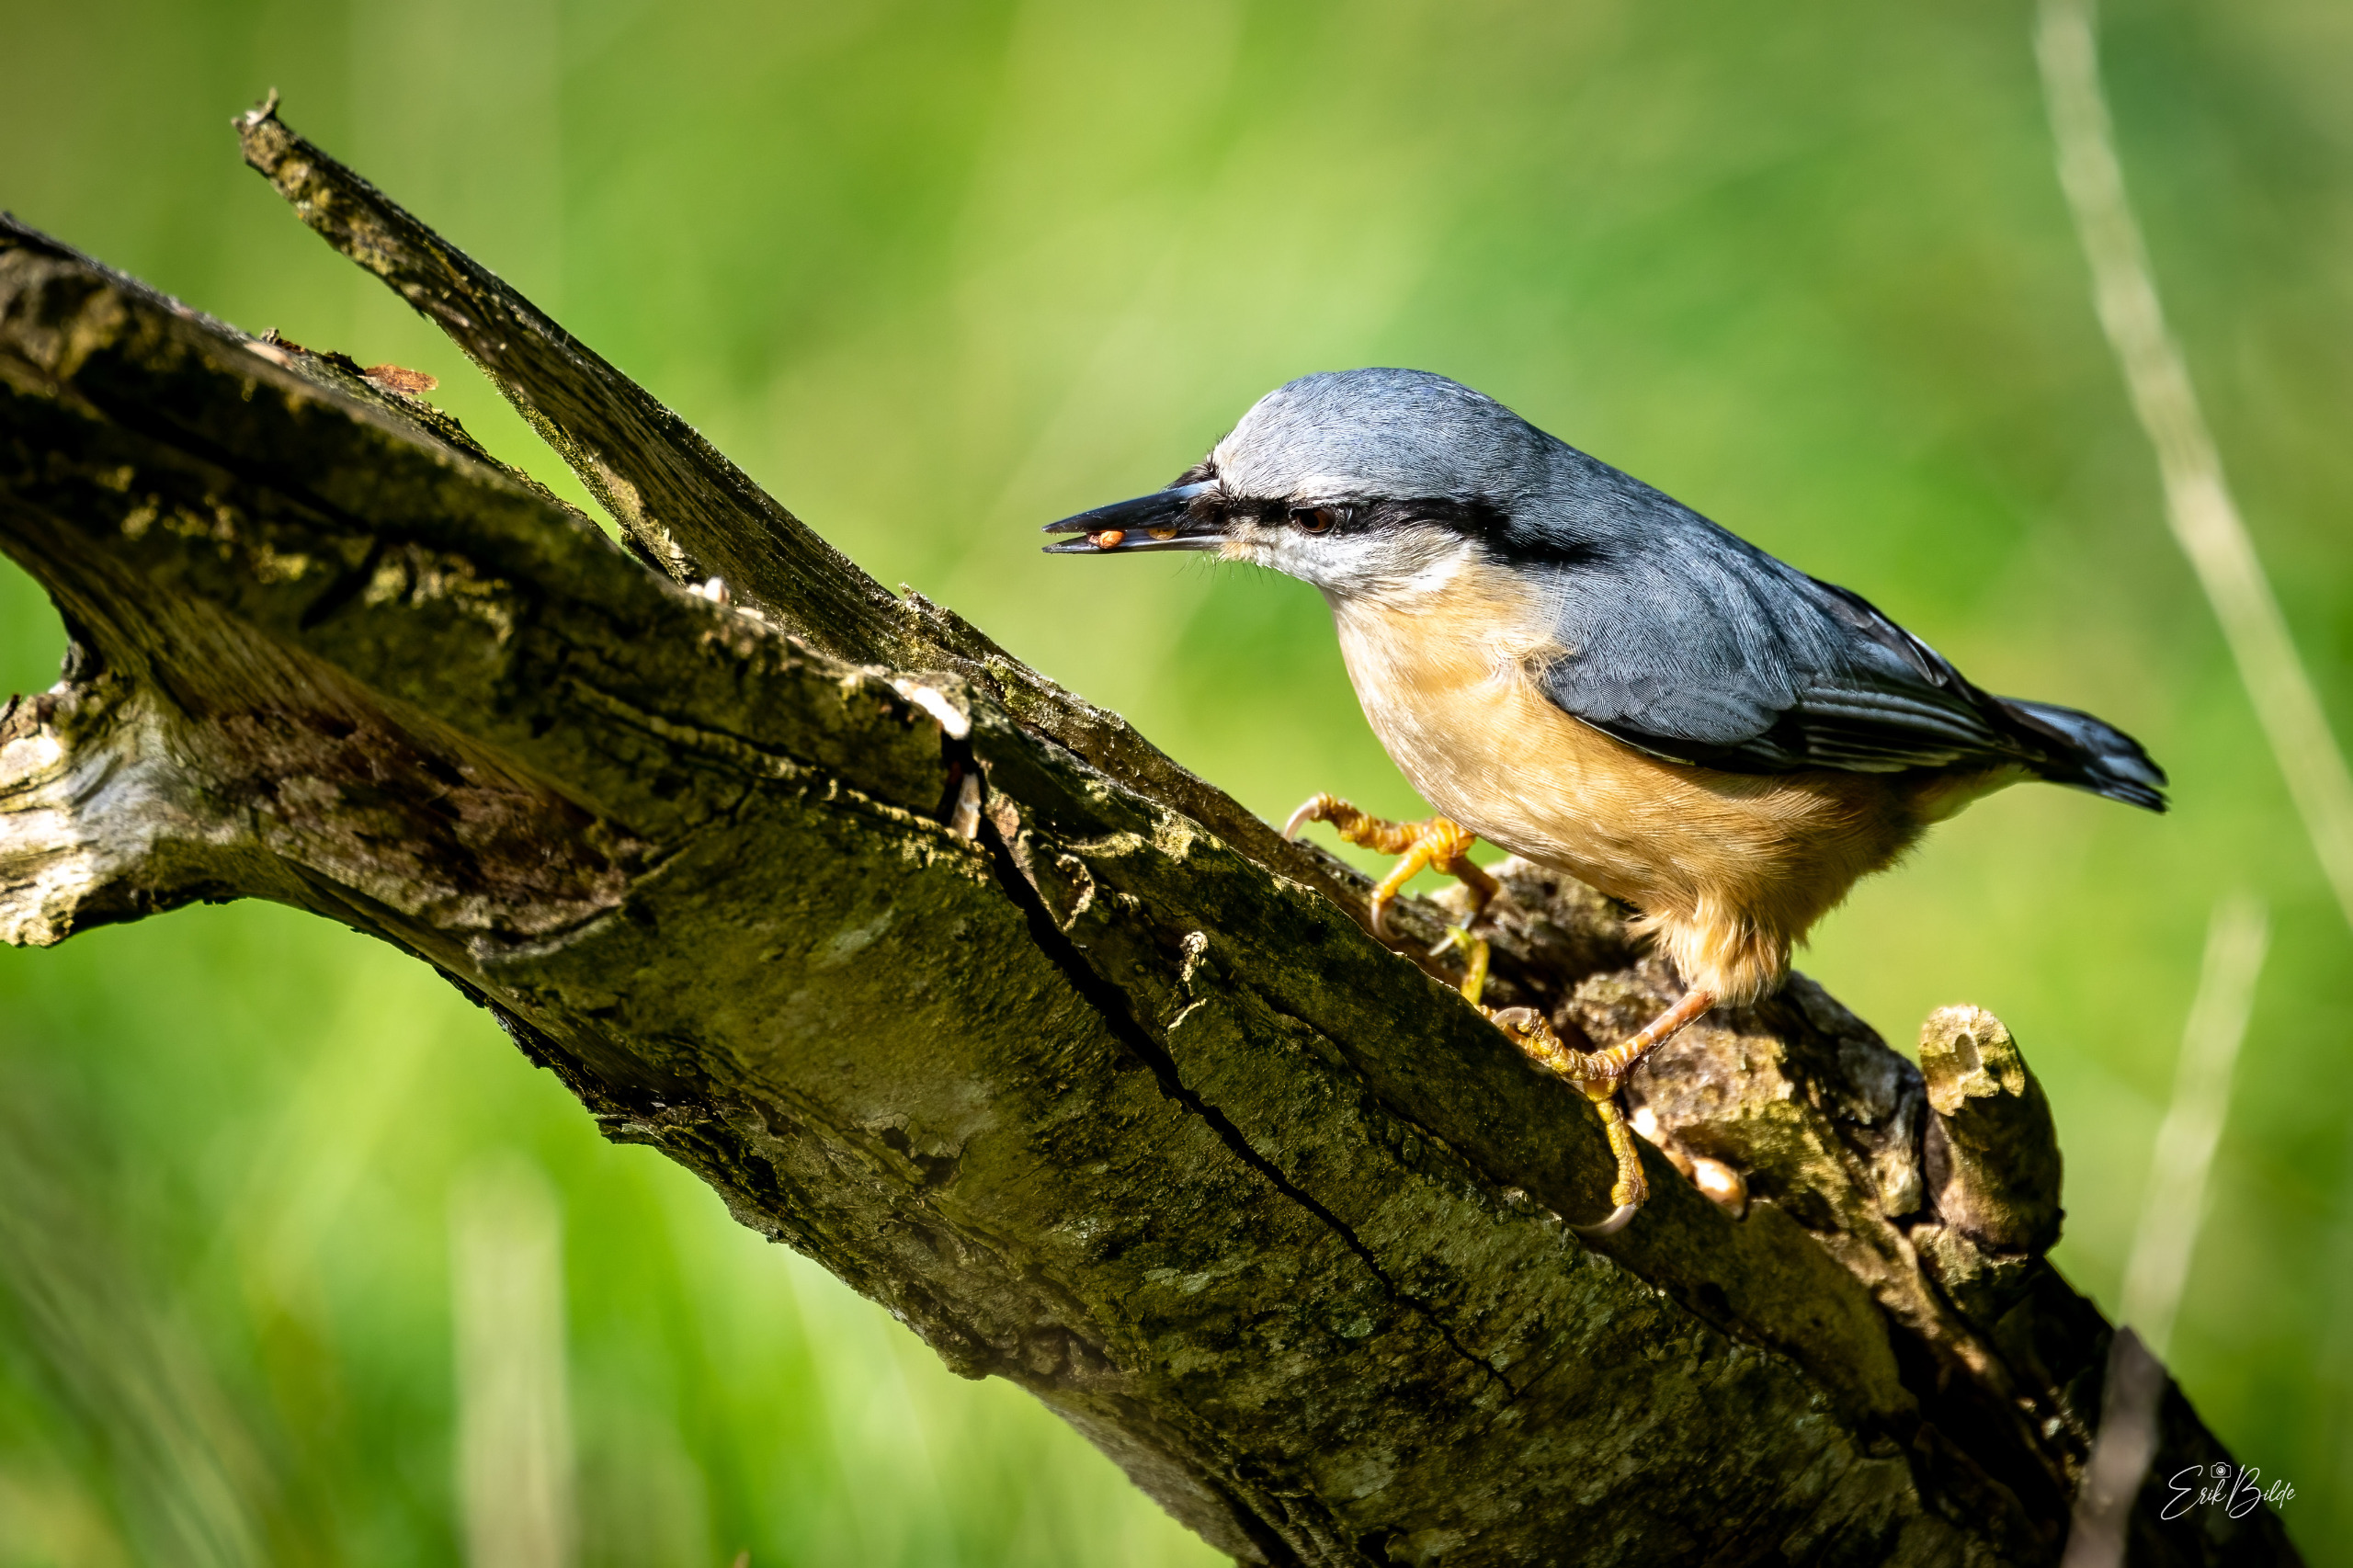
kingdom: Animalia
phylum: Chordata
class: Aves
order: Passeriformes
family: Sittidae
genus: Sitta
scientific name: Sitta europaea
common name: Spætmejse
